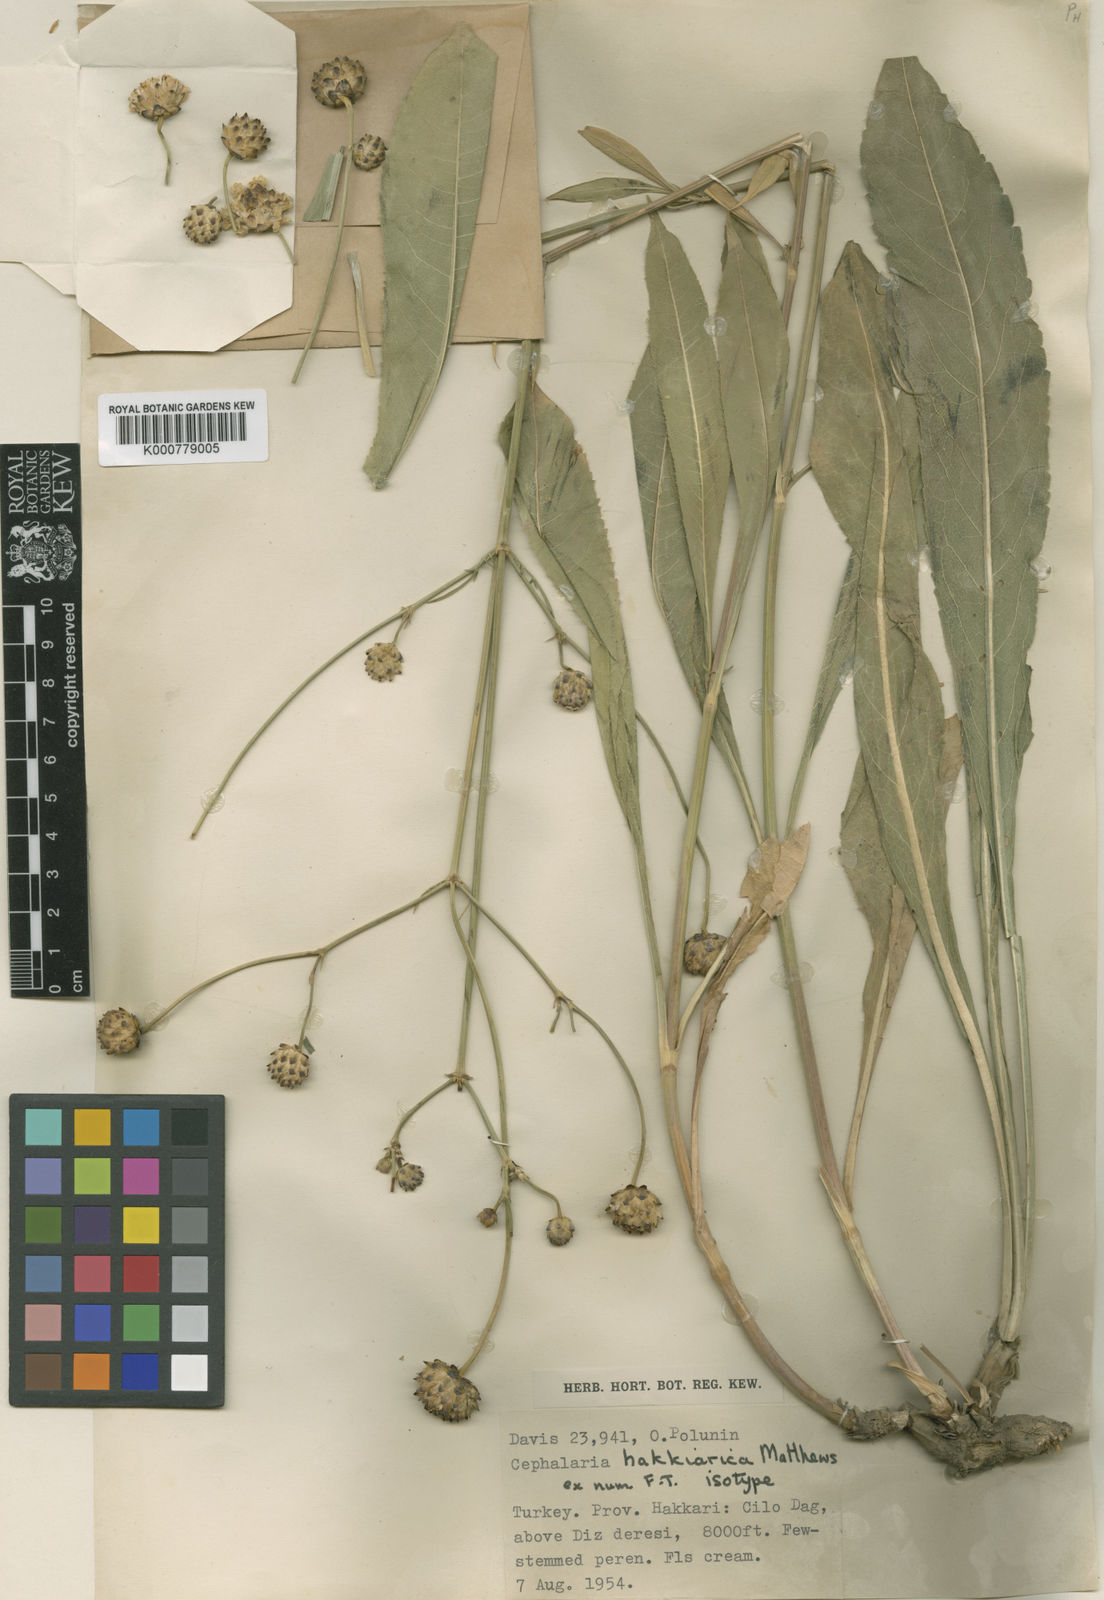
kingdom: Plantae
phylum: Tracheophyta
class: Magnoliopsida
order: Dipsacales
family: Caprifoliaceae
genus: Cephalaria
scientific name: Cephalaria hakkiarica
